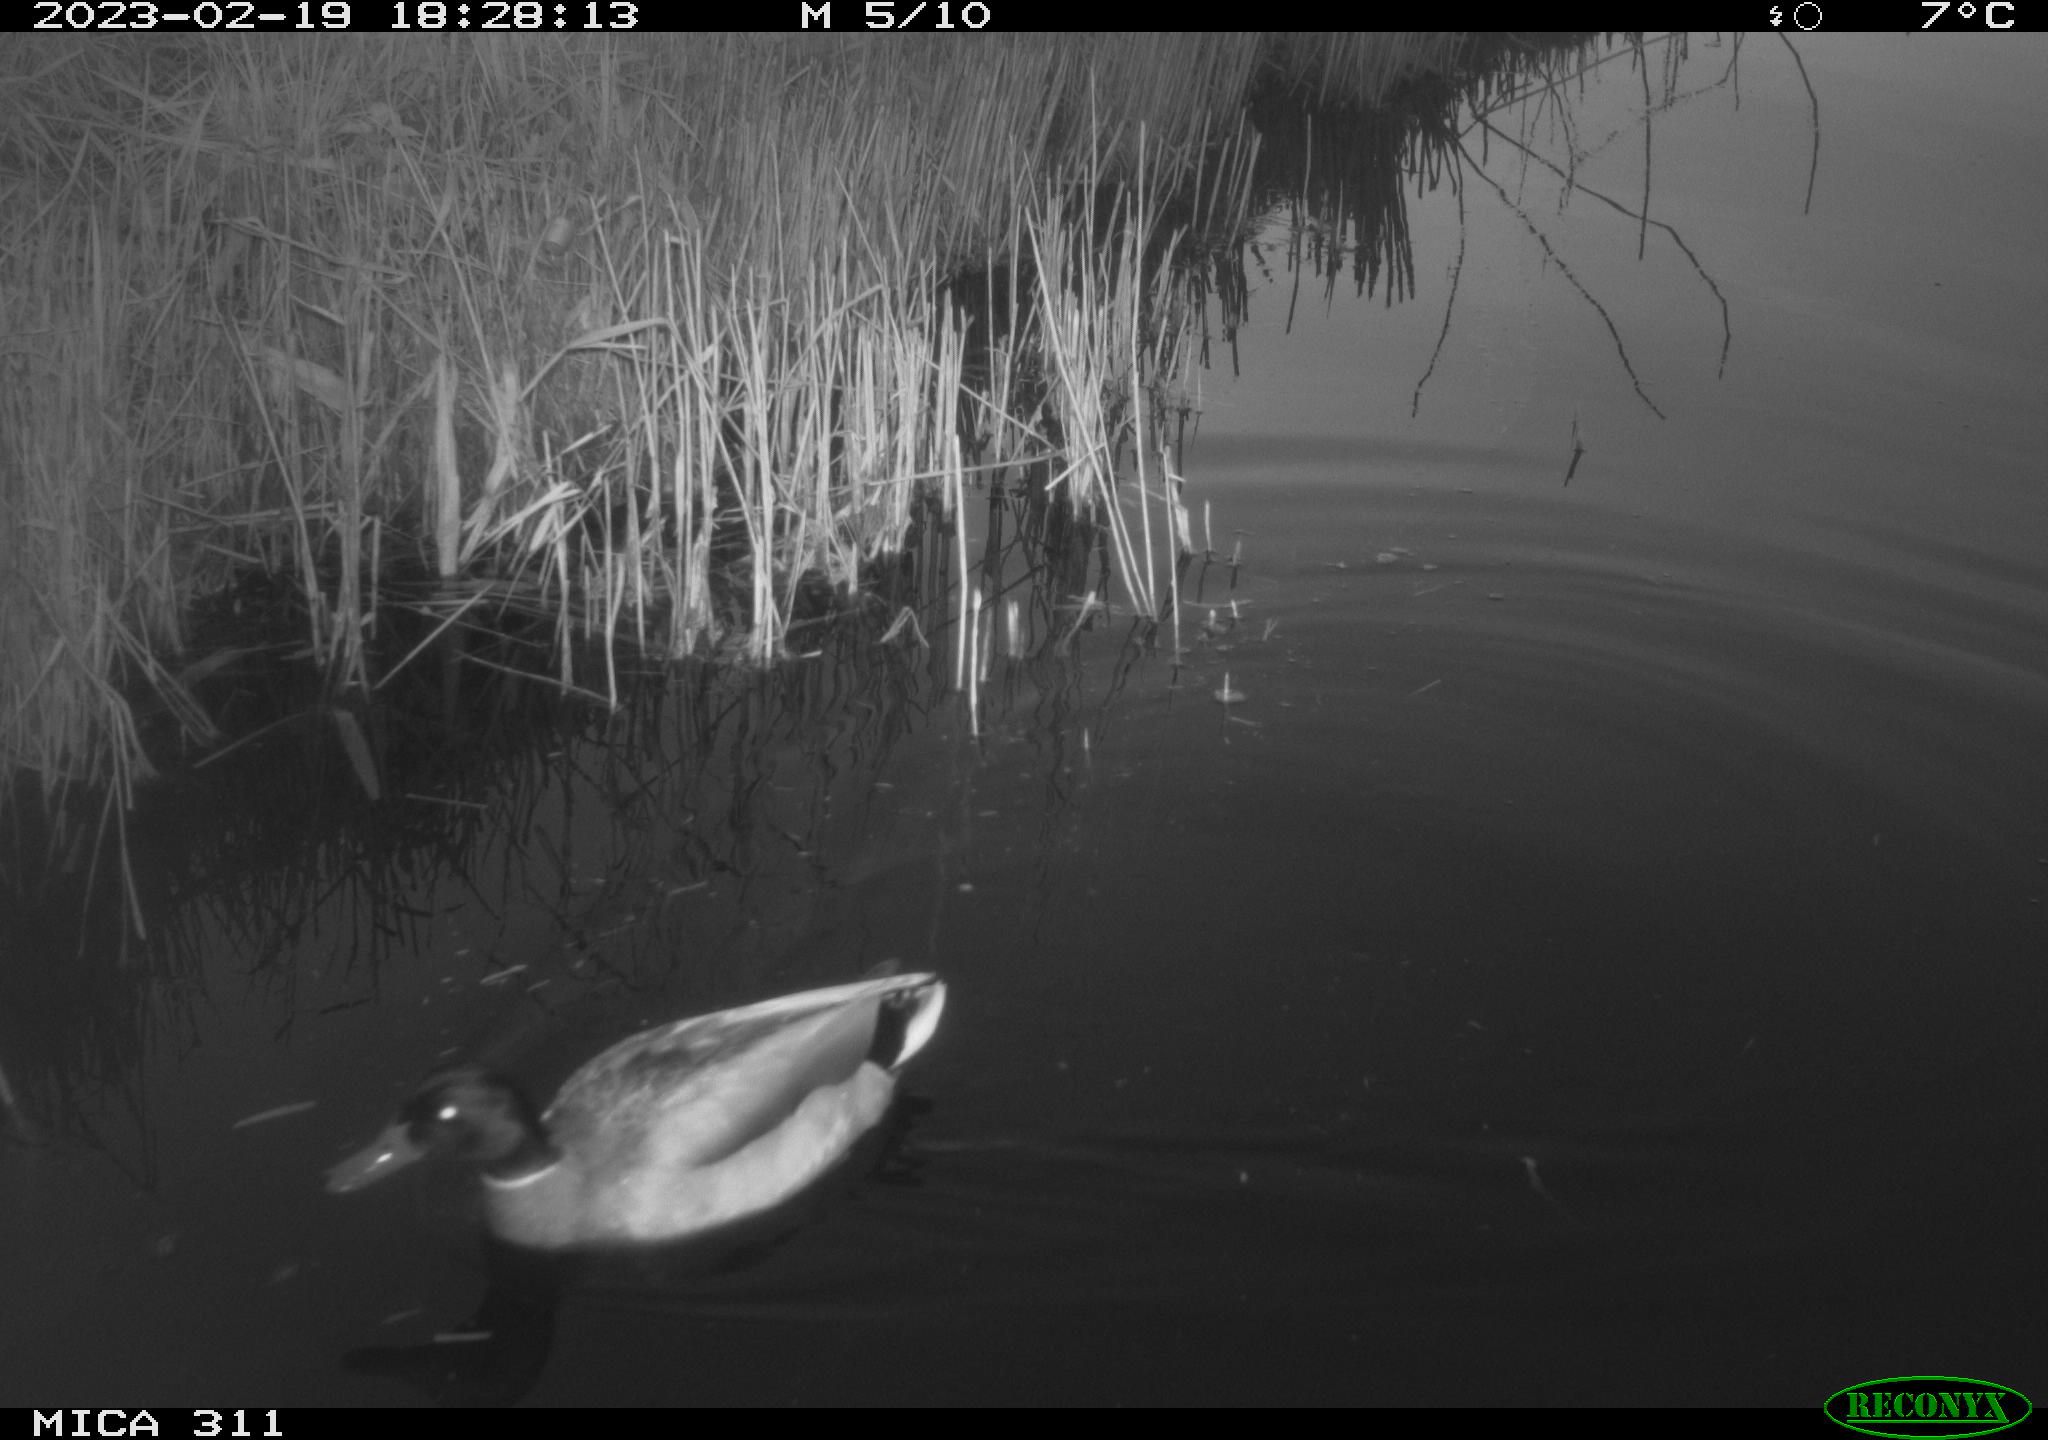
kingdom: Animalia
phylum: Chordata
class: Aves
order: Anseriformes
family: Anatidae
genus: Anas
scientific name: Anas
